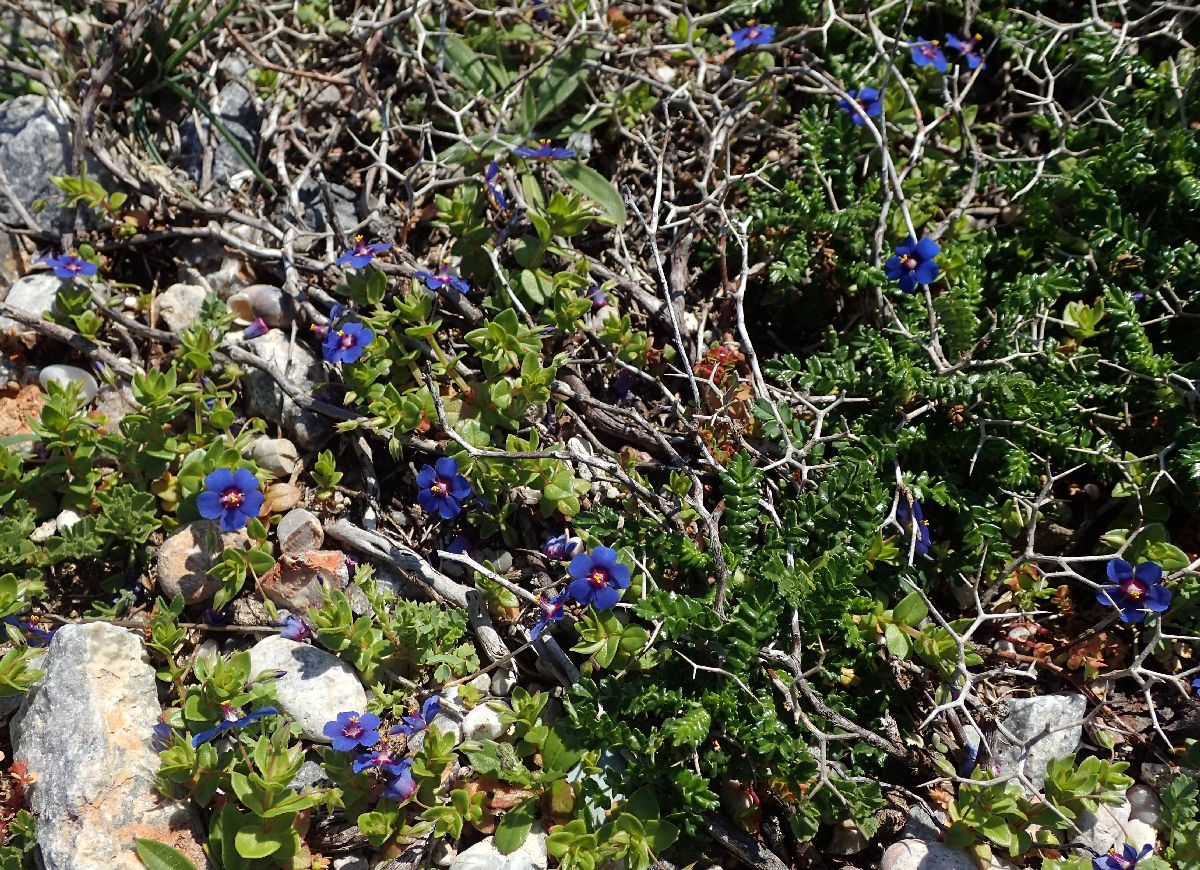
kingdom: Plantae
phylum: Tracheophyta
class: Magnoliopsida
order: Ericales
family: Primulaceae
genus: Lysimachia
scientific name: Lysimachia arvensis
